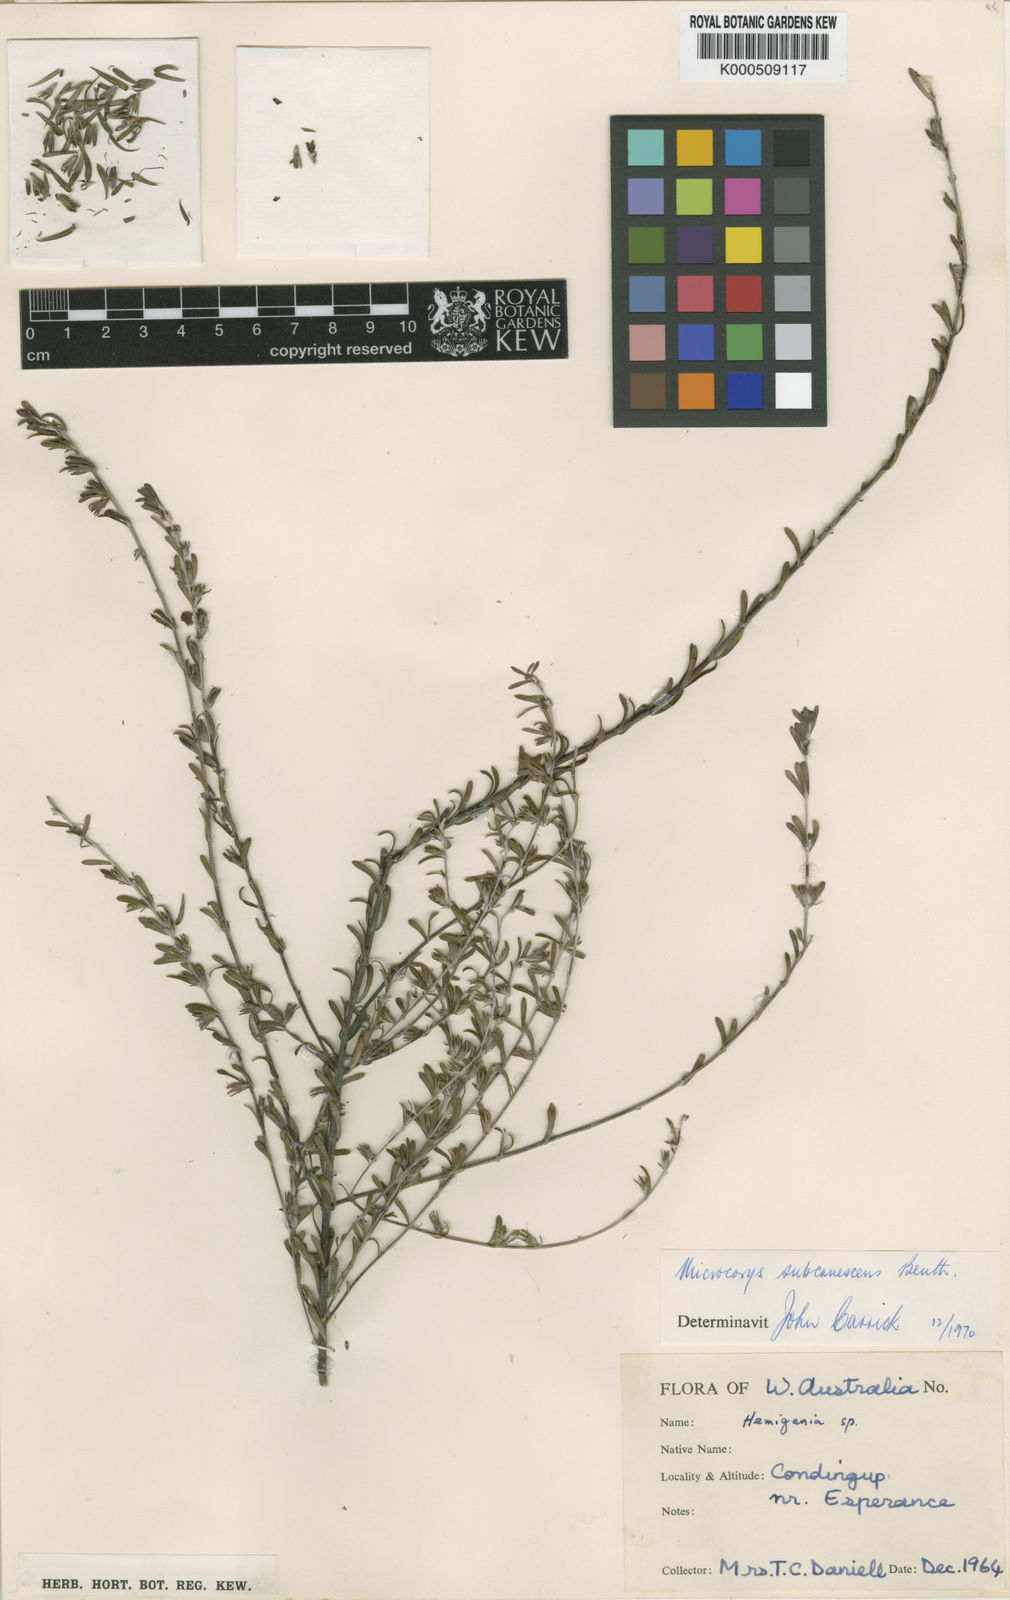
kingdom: Plantae
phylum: Tracheophyta
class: Magnoliopsida
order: Lamiales
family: Lamiaceae
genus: Microcorys
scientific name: Microcorys subcanescens
